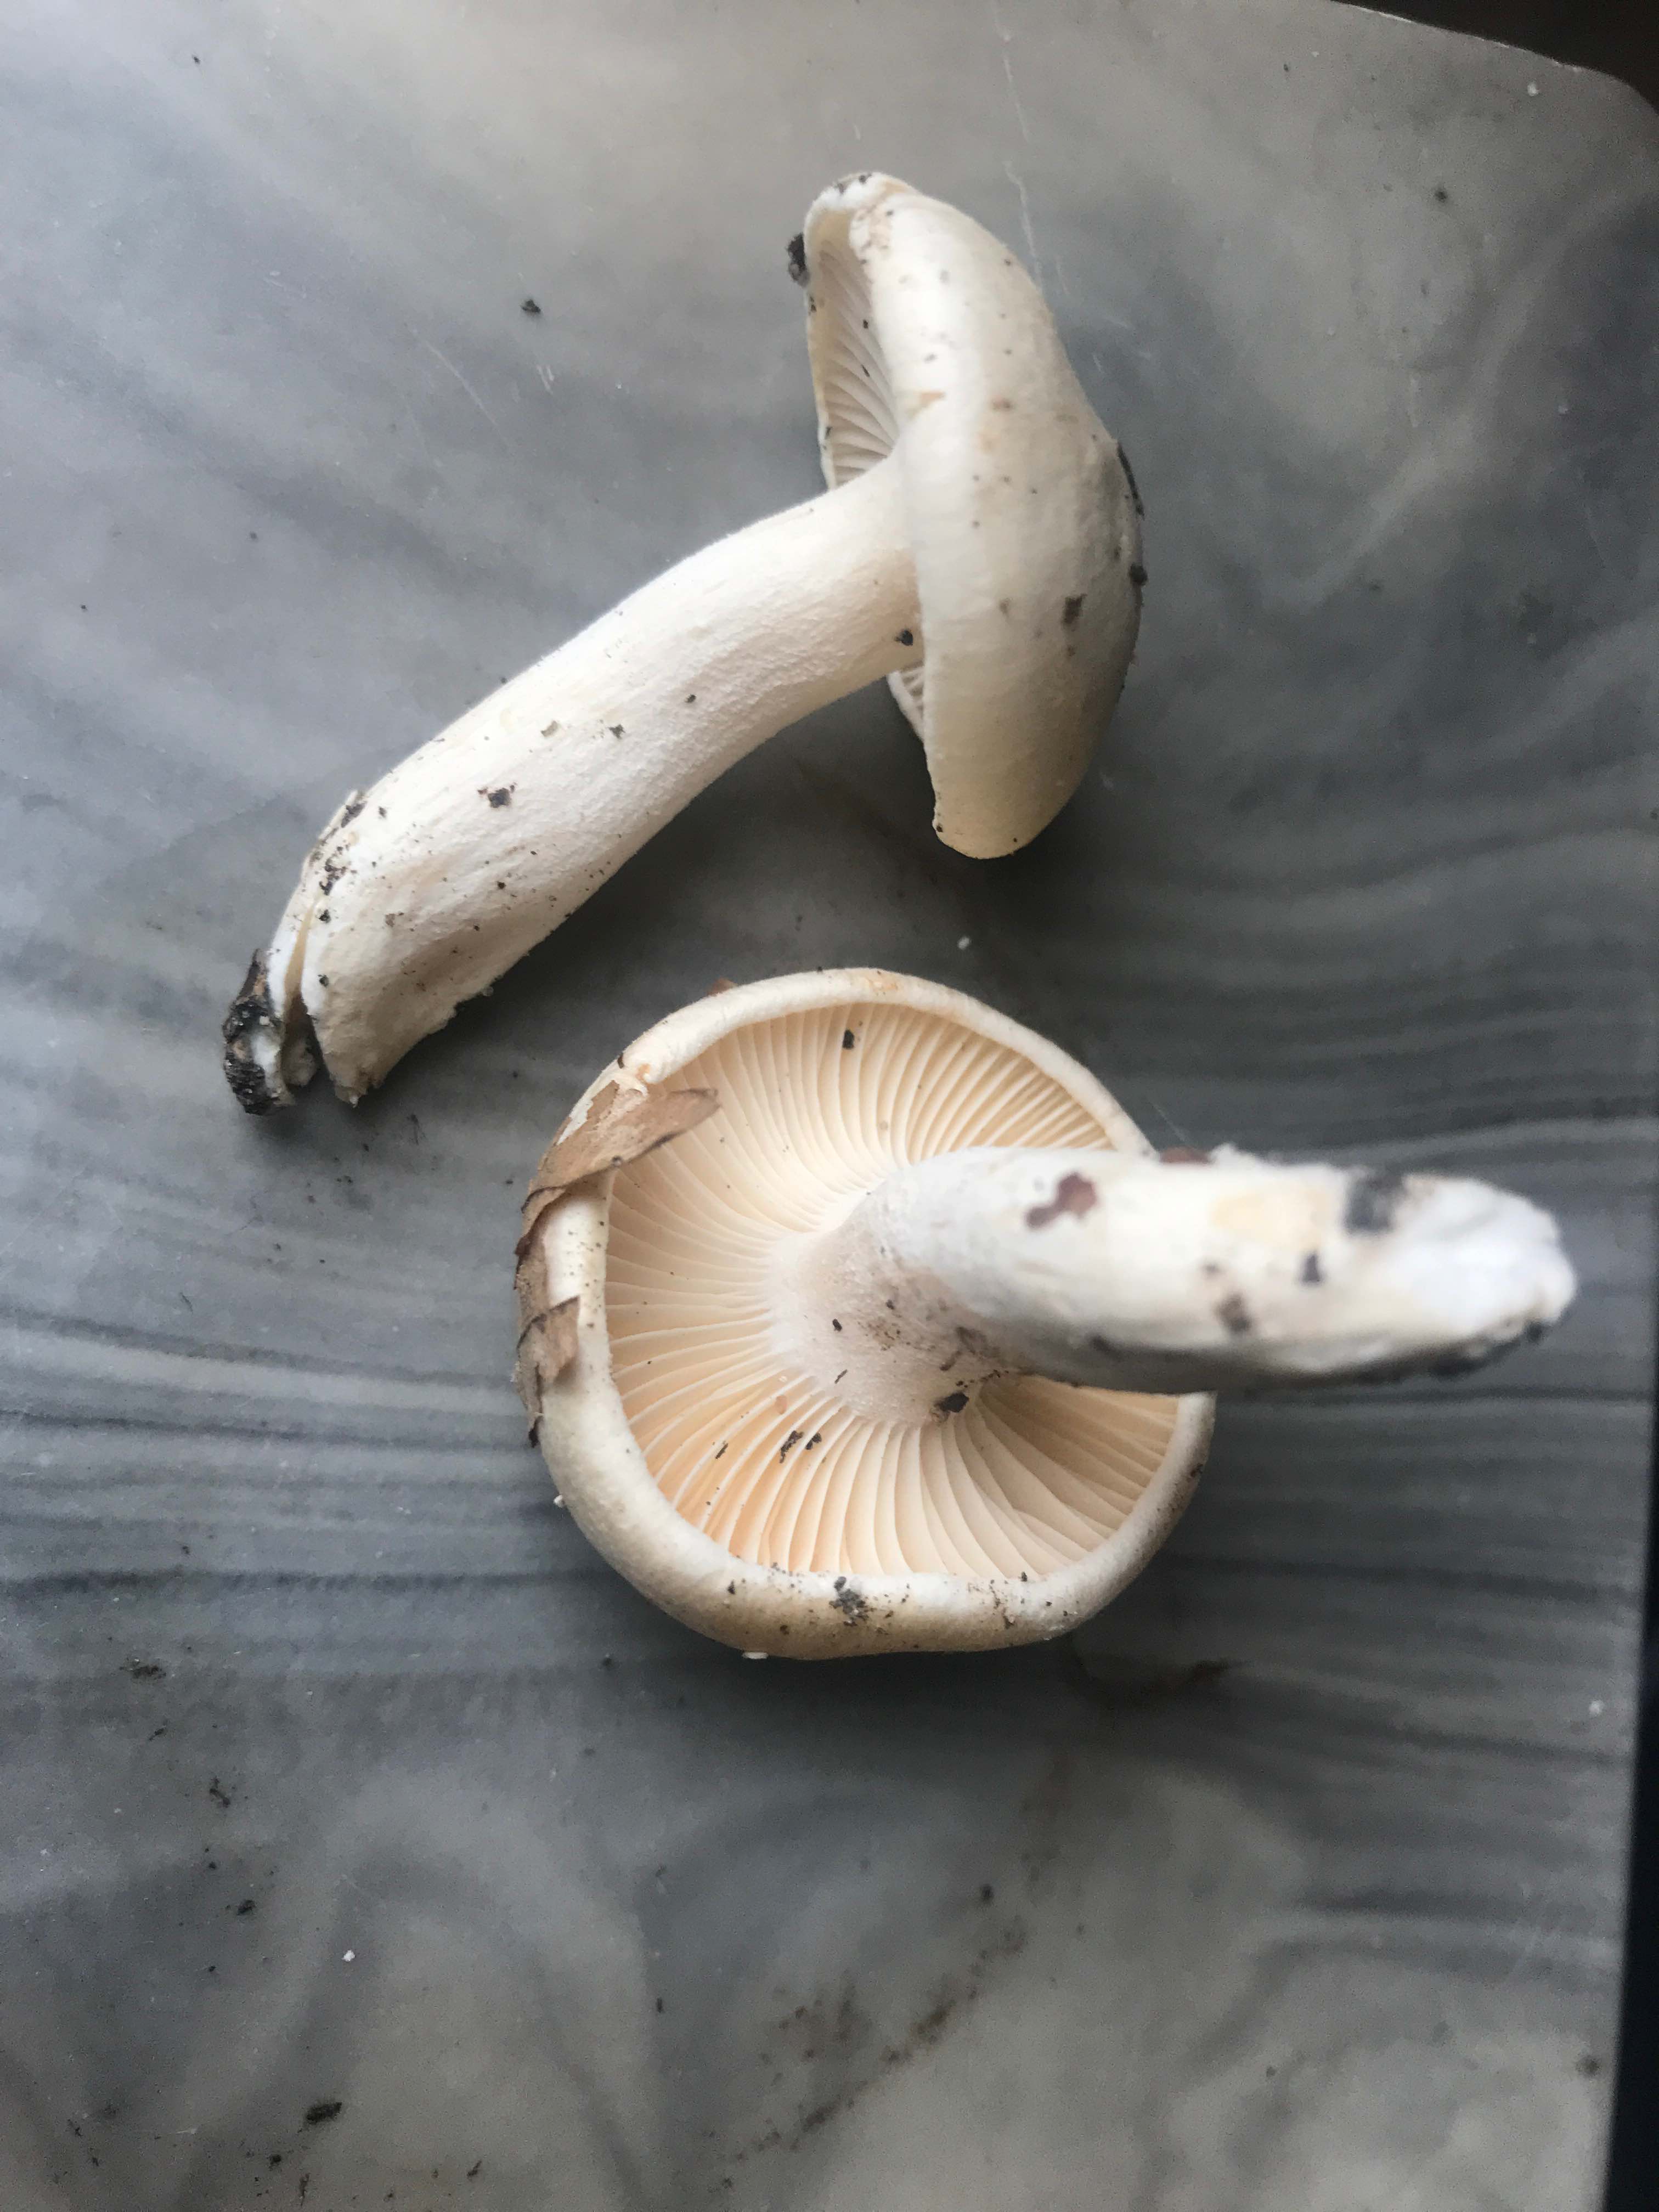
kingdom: Fungi
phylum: Basidiomycota
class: Agaricomycetes
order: Agaricales
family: Hygrophoraceae
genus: Hygrophorus
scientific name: Hygrophorus eburneus
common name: elfenbens-sneglehat
